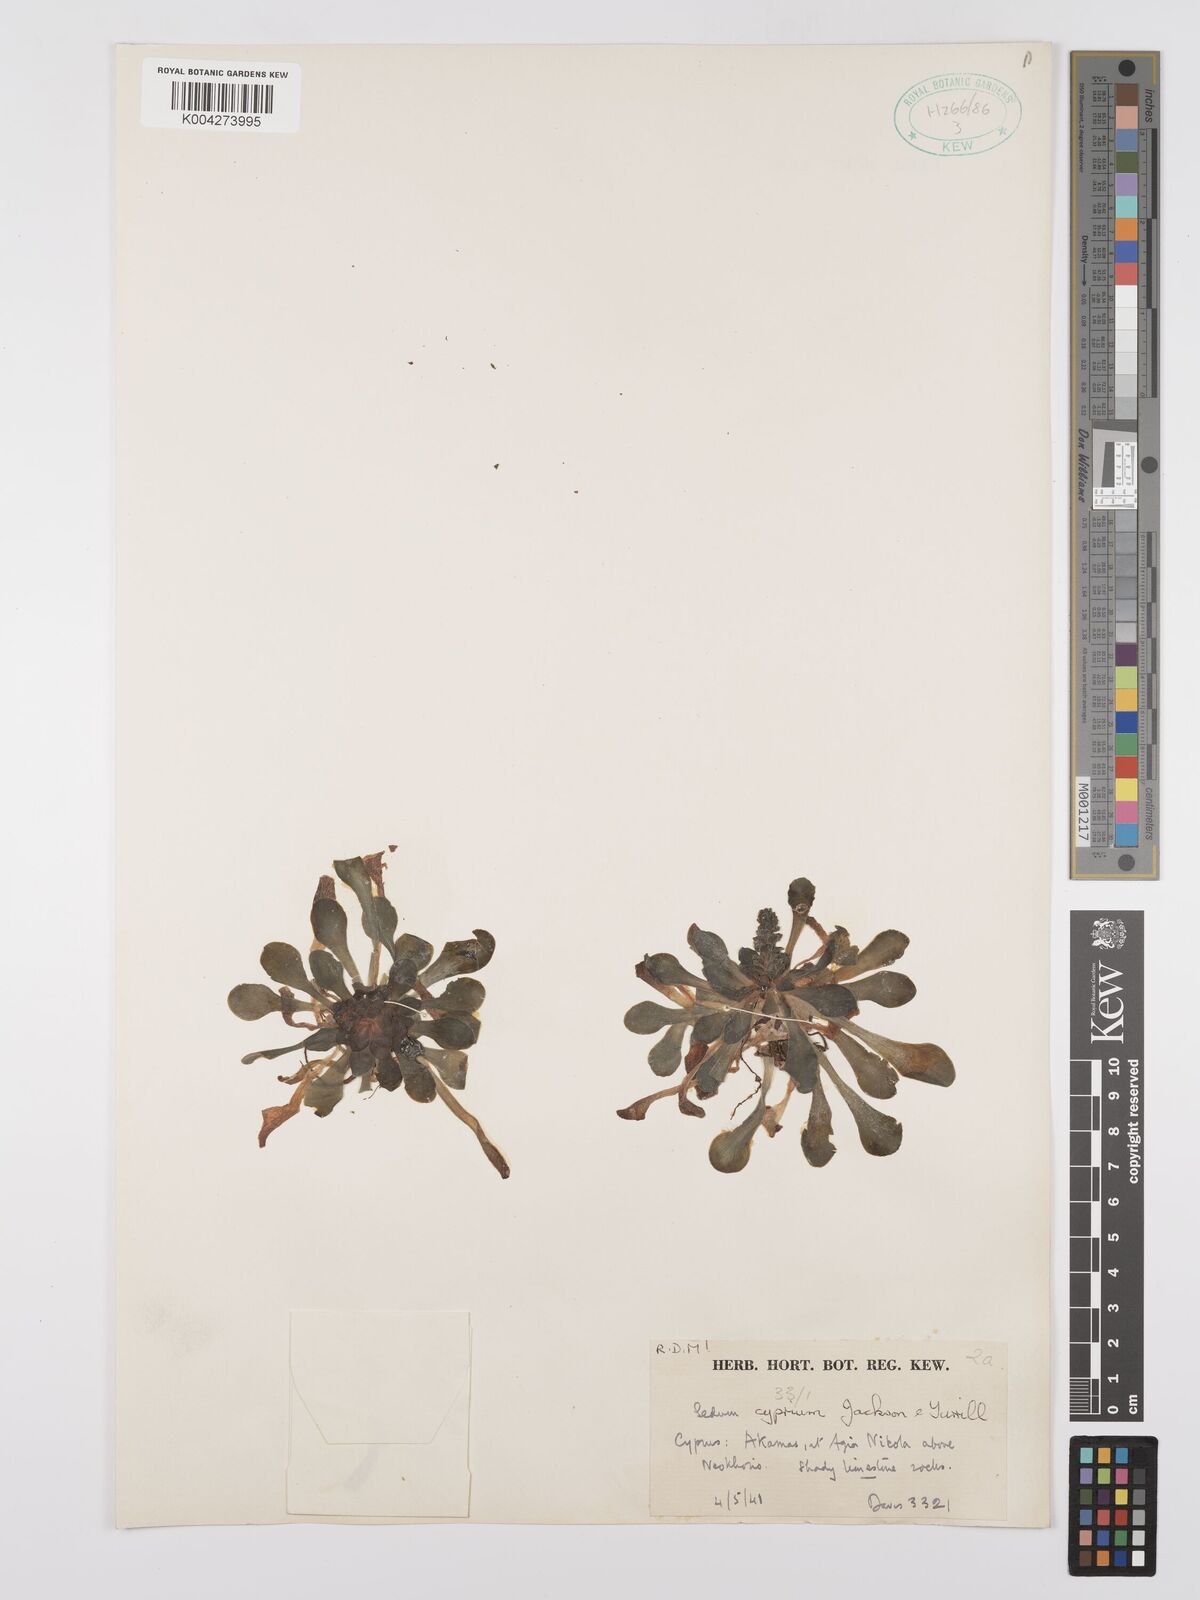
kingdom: Plantae
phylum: Tracheophyta
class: Magnoliopsida
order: Saxifragales
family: Crassulaceae
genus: Sedum
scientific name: Sedum cyprium
